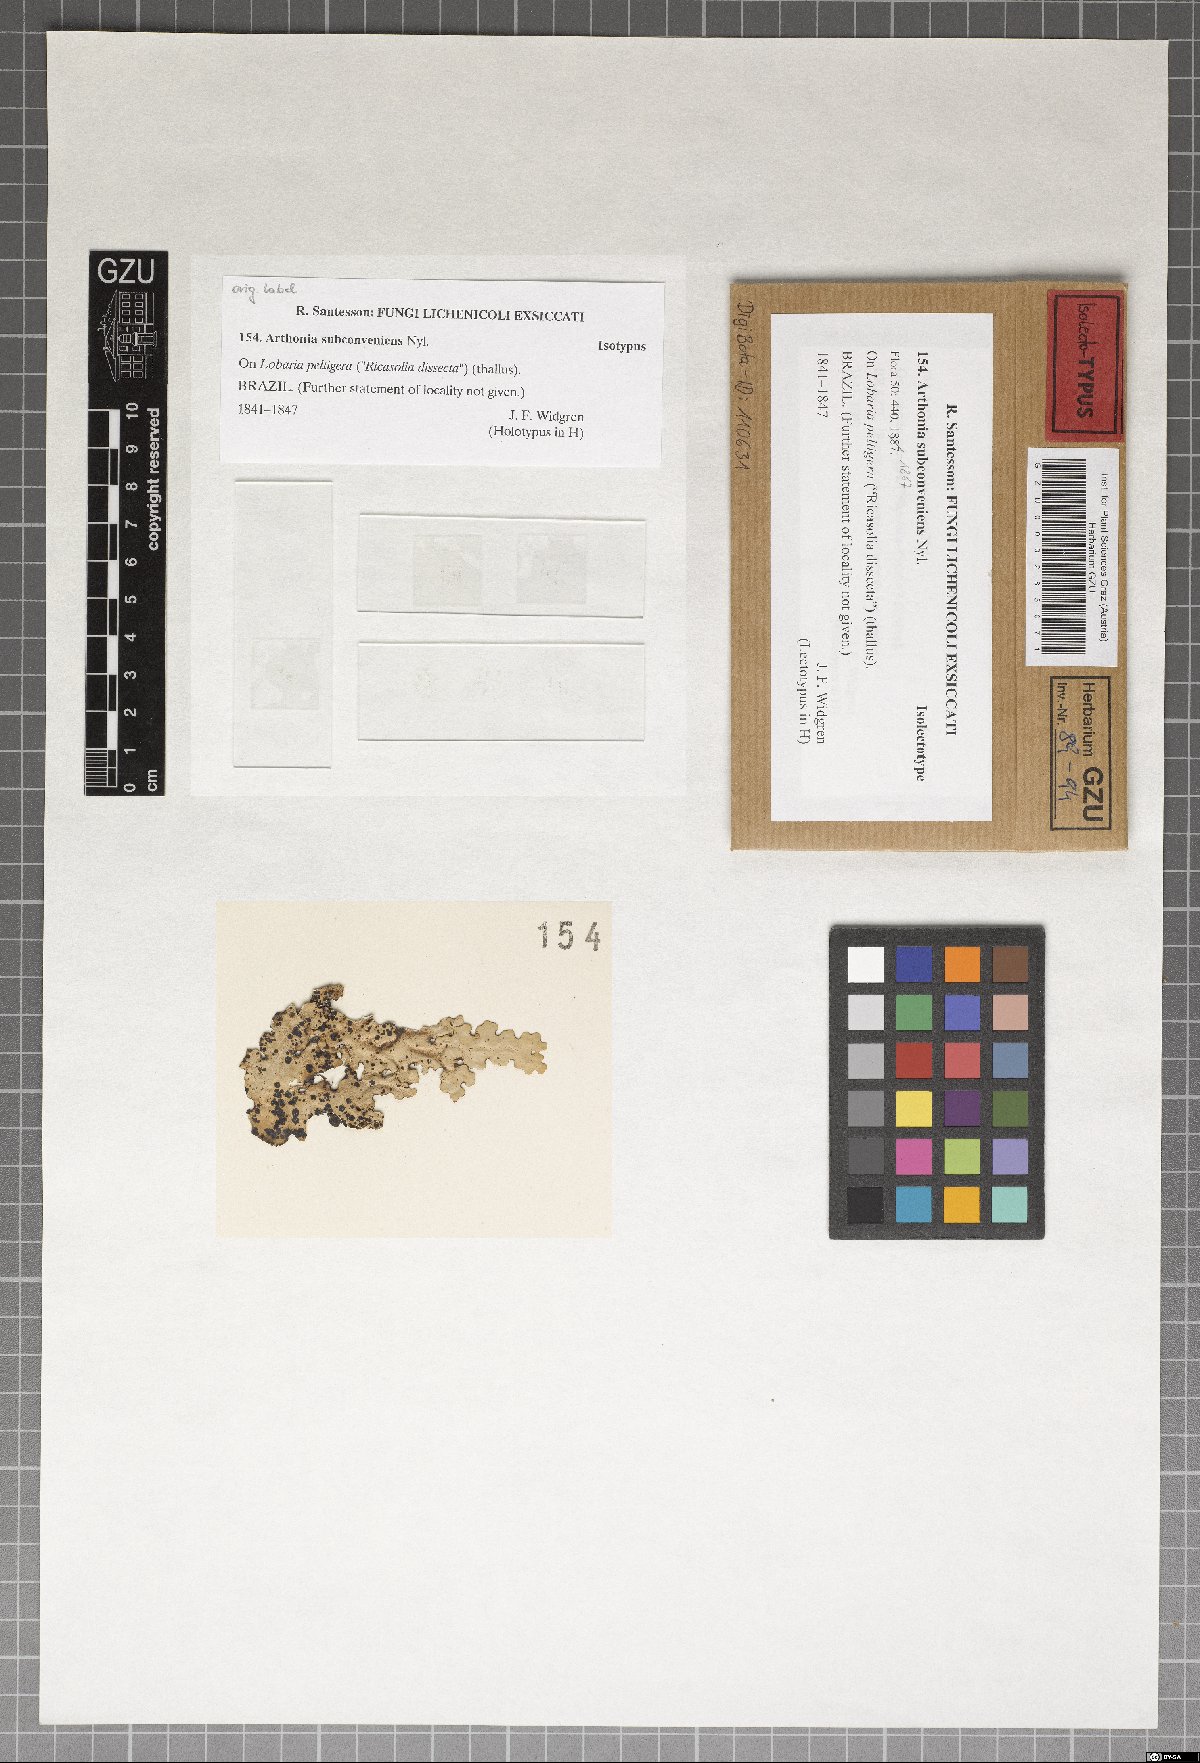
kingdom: Fungi
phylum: Ascomycota
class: Arthoniomycetes
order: Arthoniales
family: Arthoniaceae
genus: Arthonia
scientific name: Arthonia subconveniens
